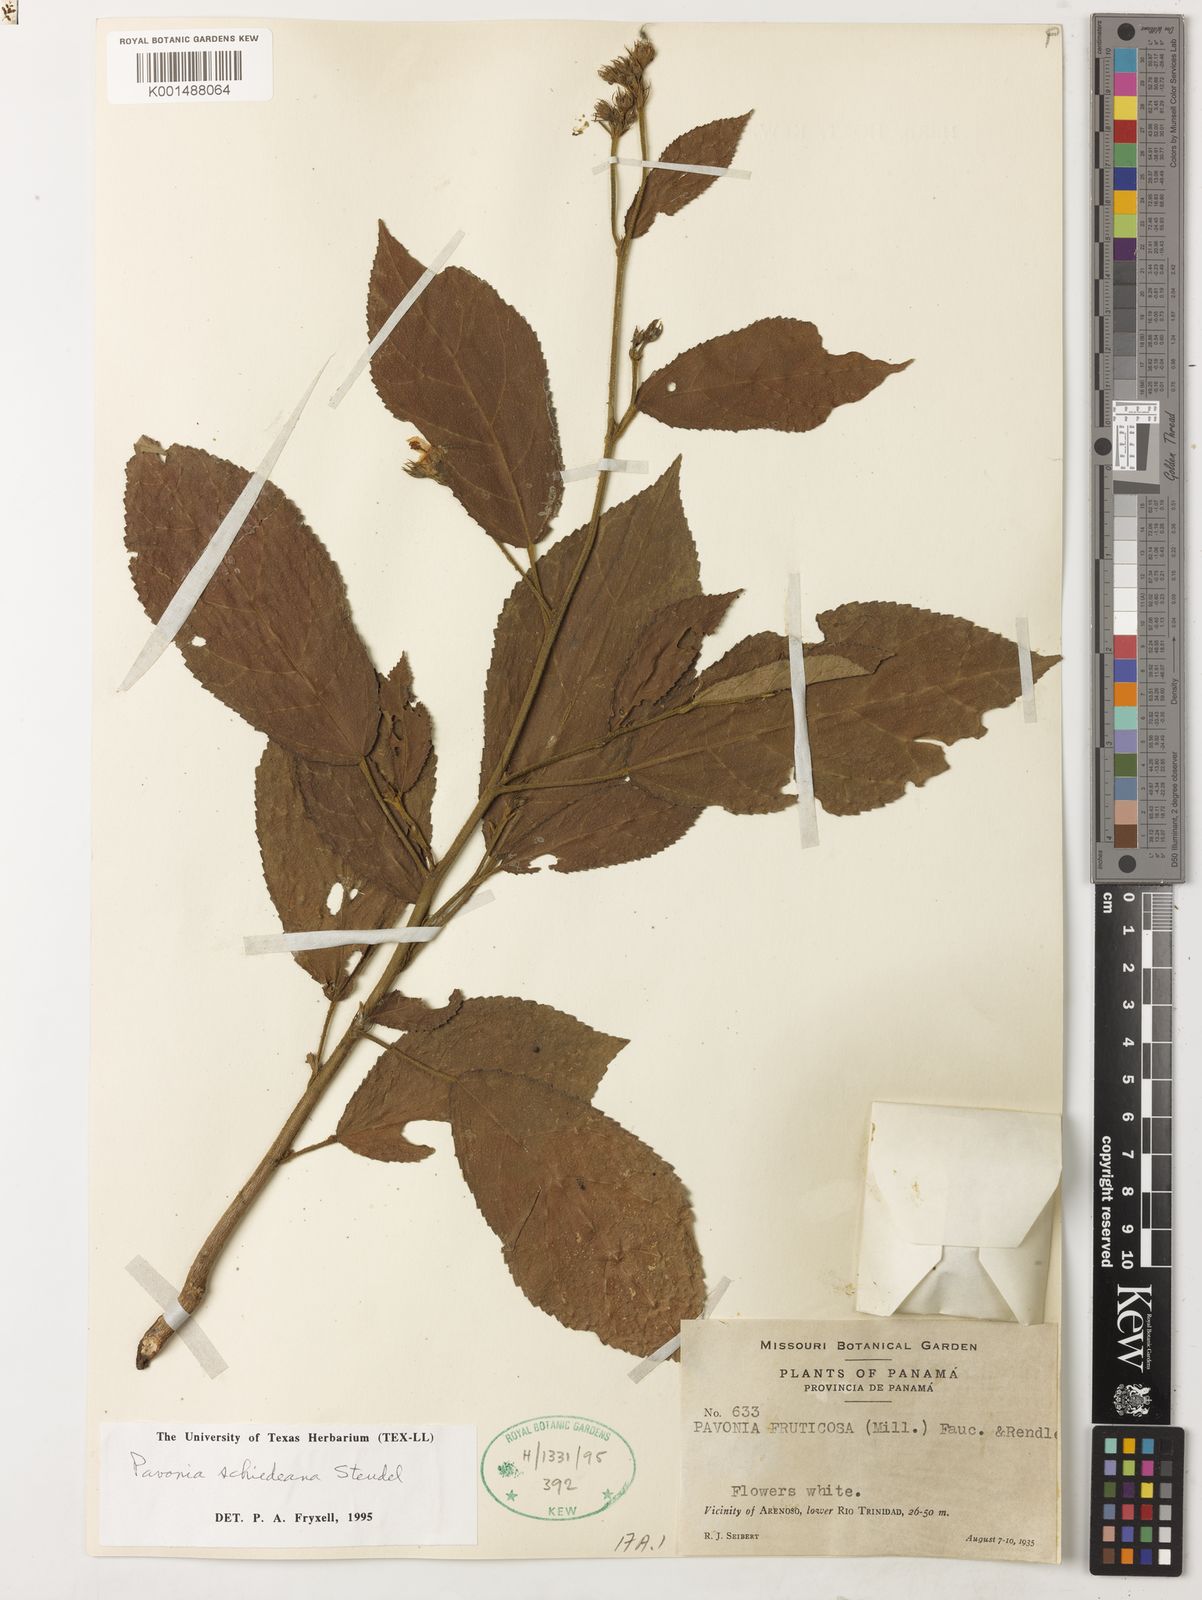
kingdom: Plantae
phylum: Tracheophyta
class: Magnoliopsida
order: Malvales
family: Malvaceae
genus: Pavonia
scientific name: Pavonia schiedeana
